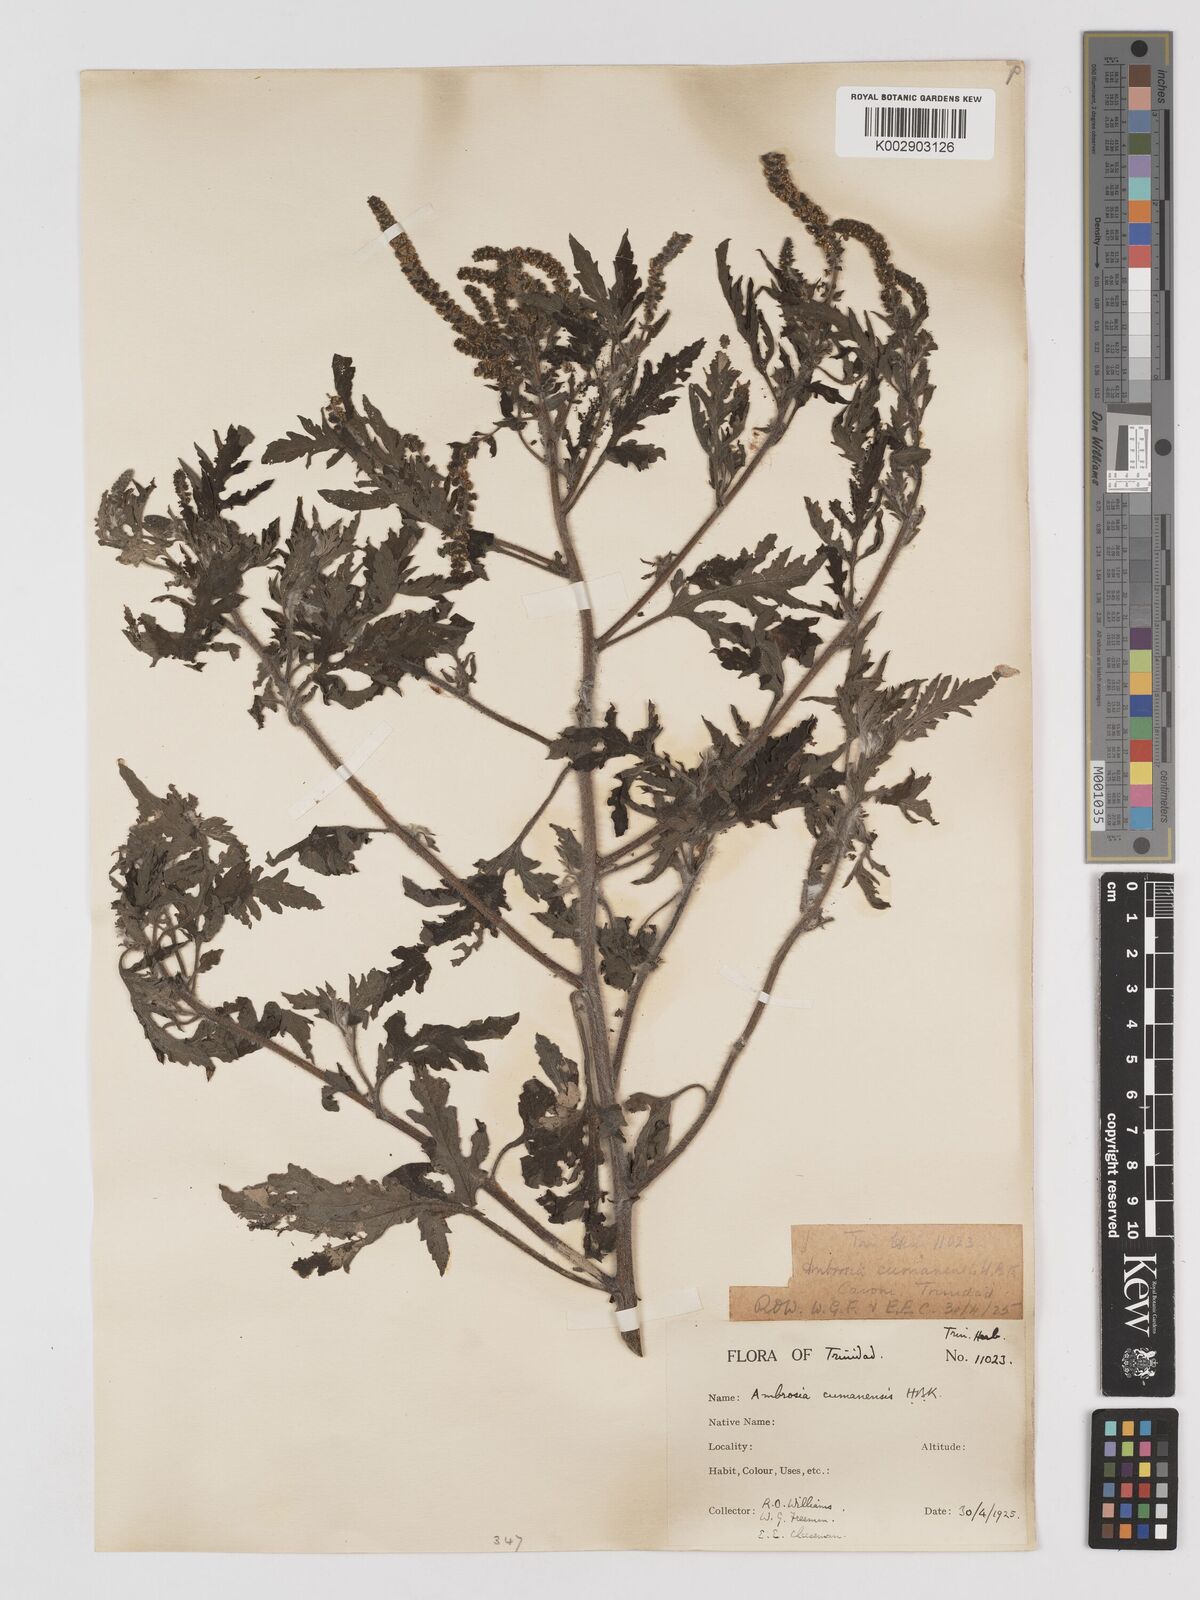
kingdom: Plantae
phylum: Tracheophyta
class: Magnoliopsida
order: Asterales
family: Asteraceae
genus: Ambrosia
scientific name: Ambrosia cumanensis
